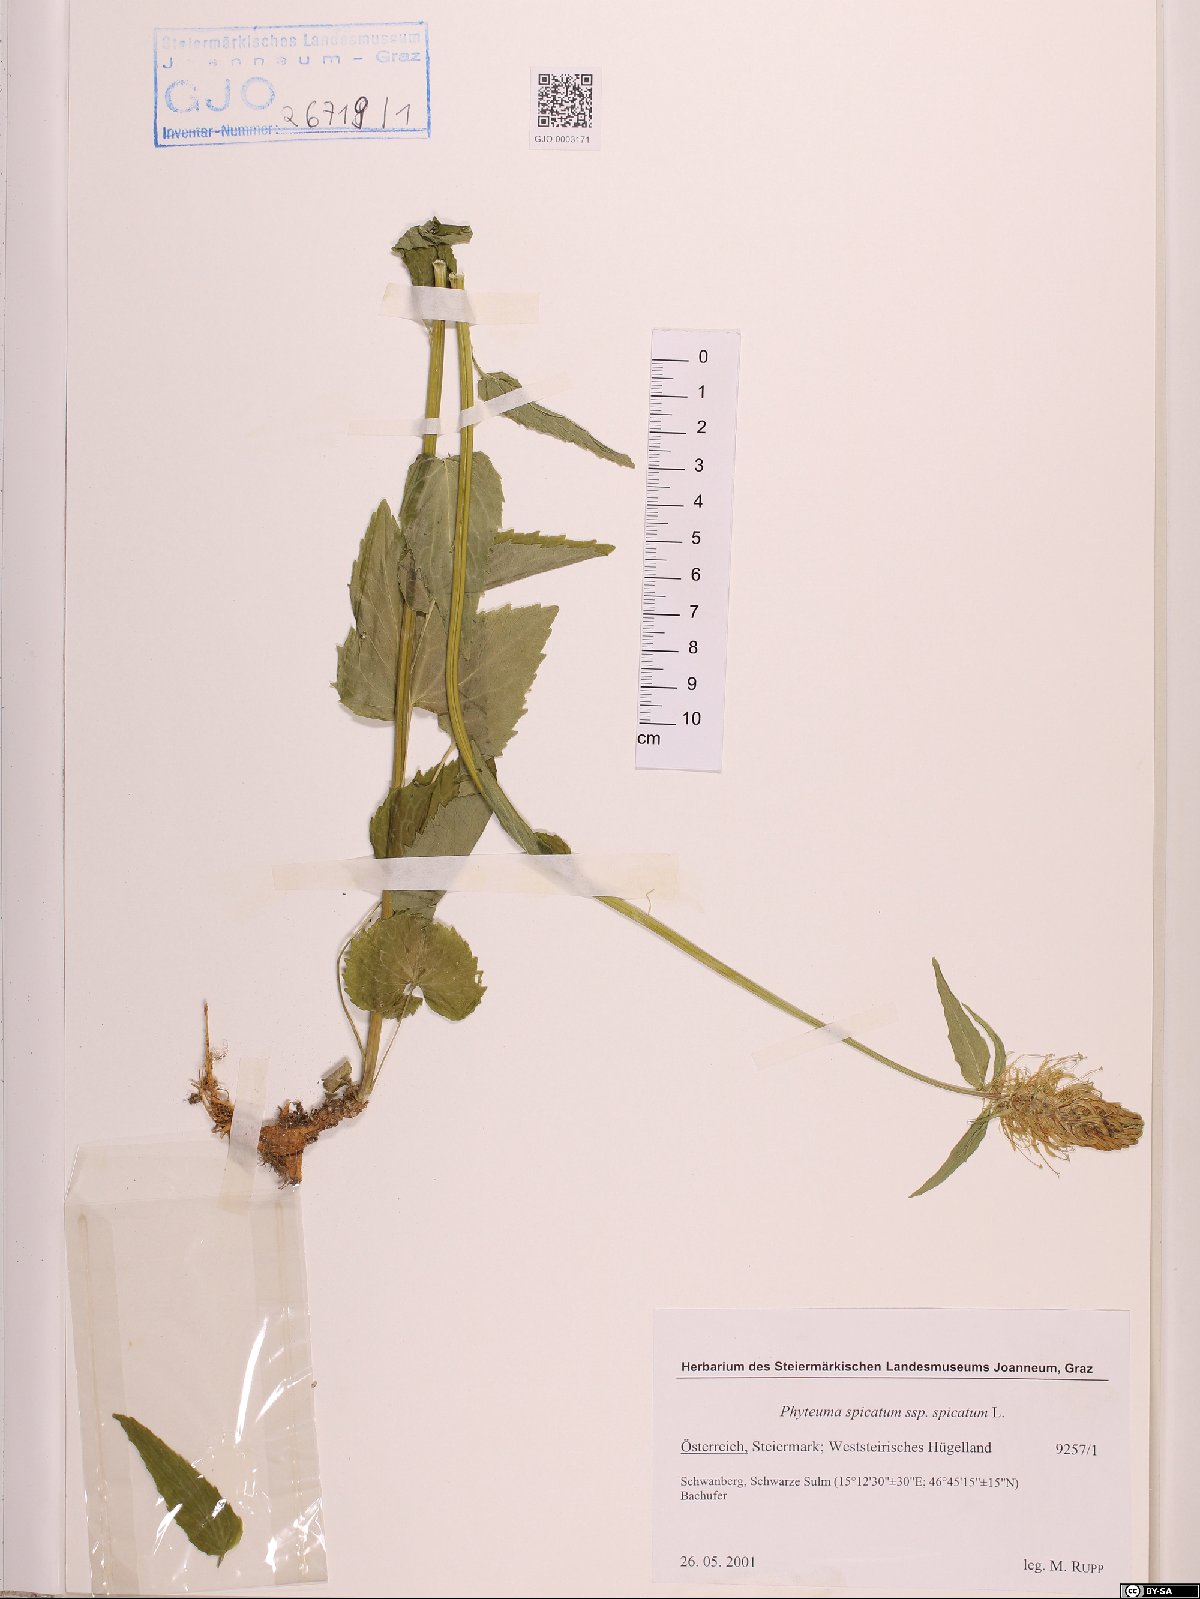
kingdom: Plantae
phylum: Tracheophyta
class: Magnoliopsida
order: Asterales
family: Campanulaceae
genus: Phyteuma
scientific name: Phyteuma spicatum
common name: Spiked rampion
